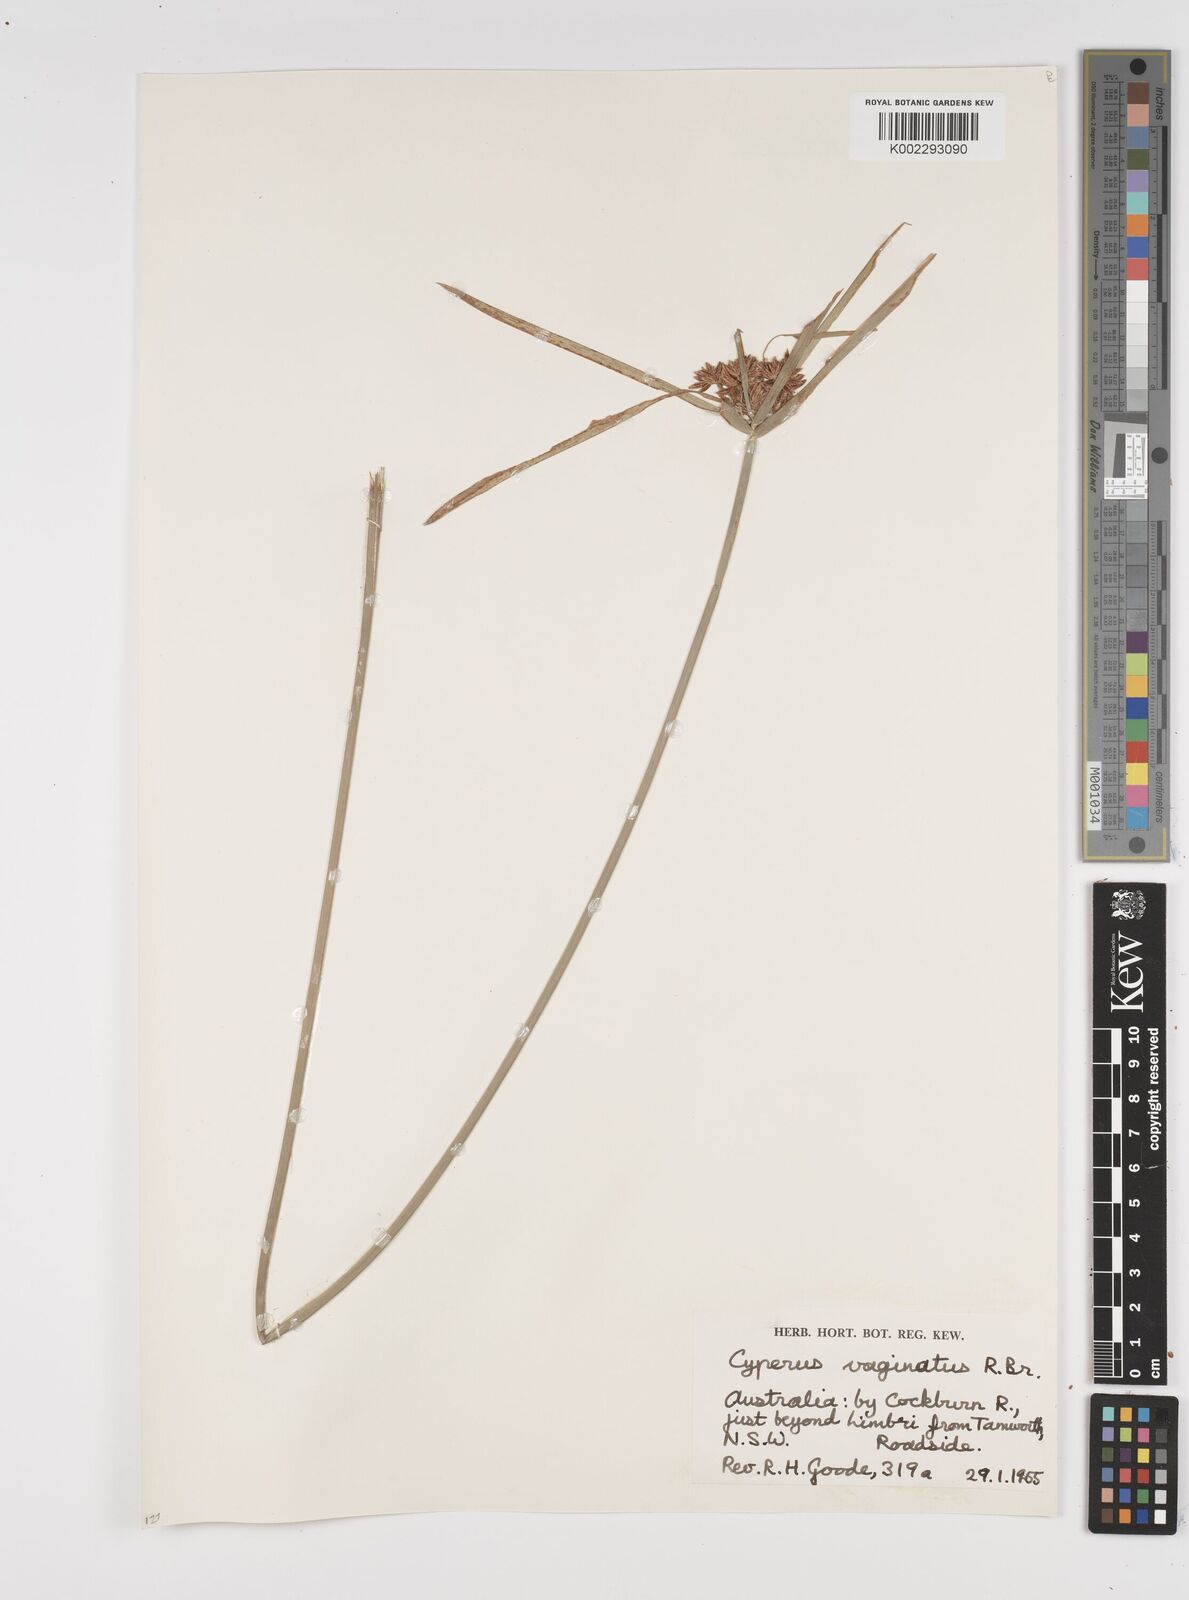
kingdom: Plantae
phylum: Tracheophyta
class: Liliopsida
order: Poales
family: Cyperaceae
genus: Cyperus
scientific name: Cyperus vaginatus
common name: Stiff-leaved flat-sedge
